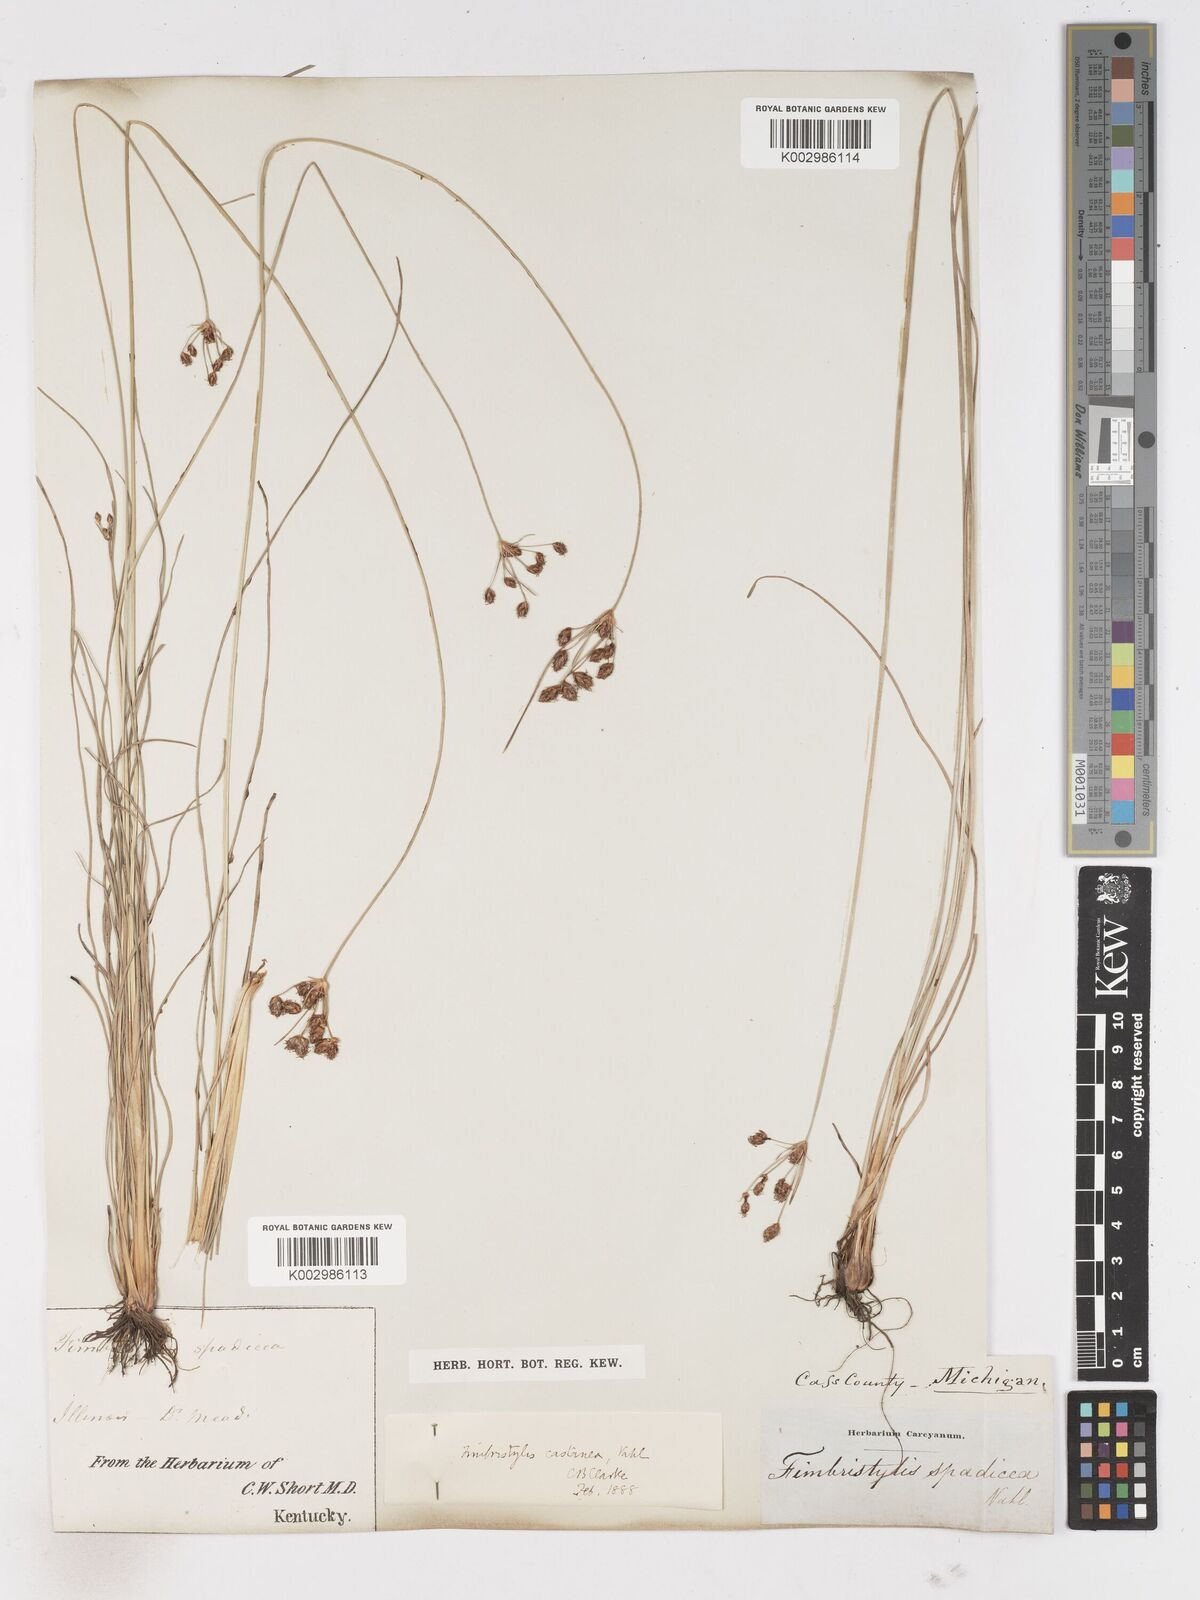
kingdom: Plantae
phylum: Tracheophyta
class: Liliopsida
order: Poales
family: Cyperaceae
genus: Fimbristylis
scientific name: Fimbristylis spadicea
